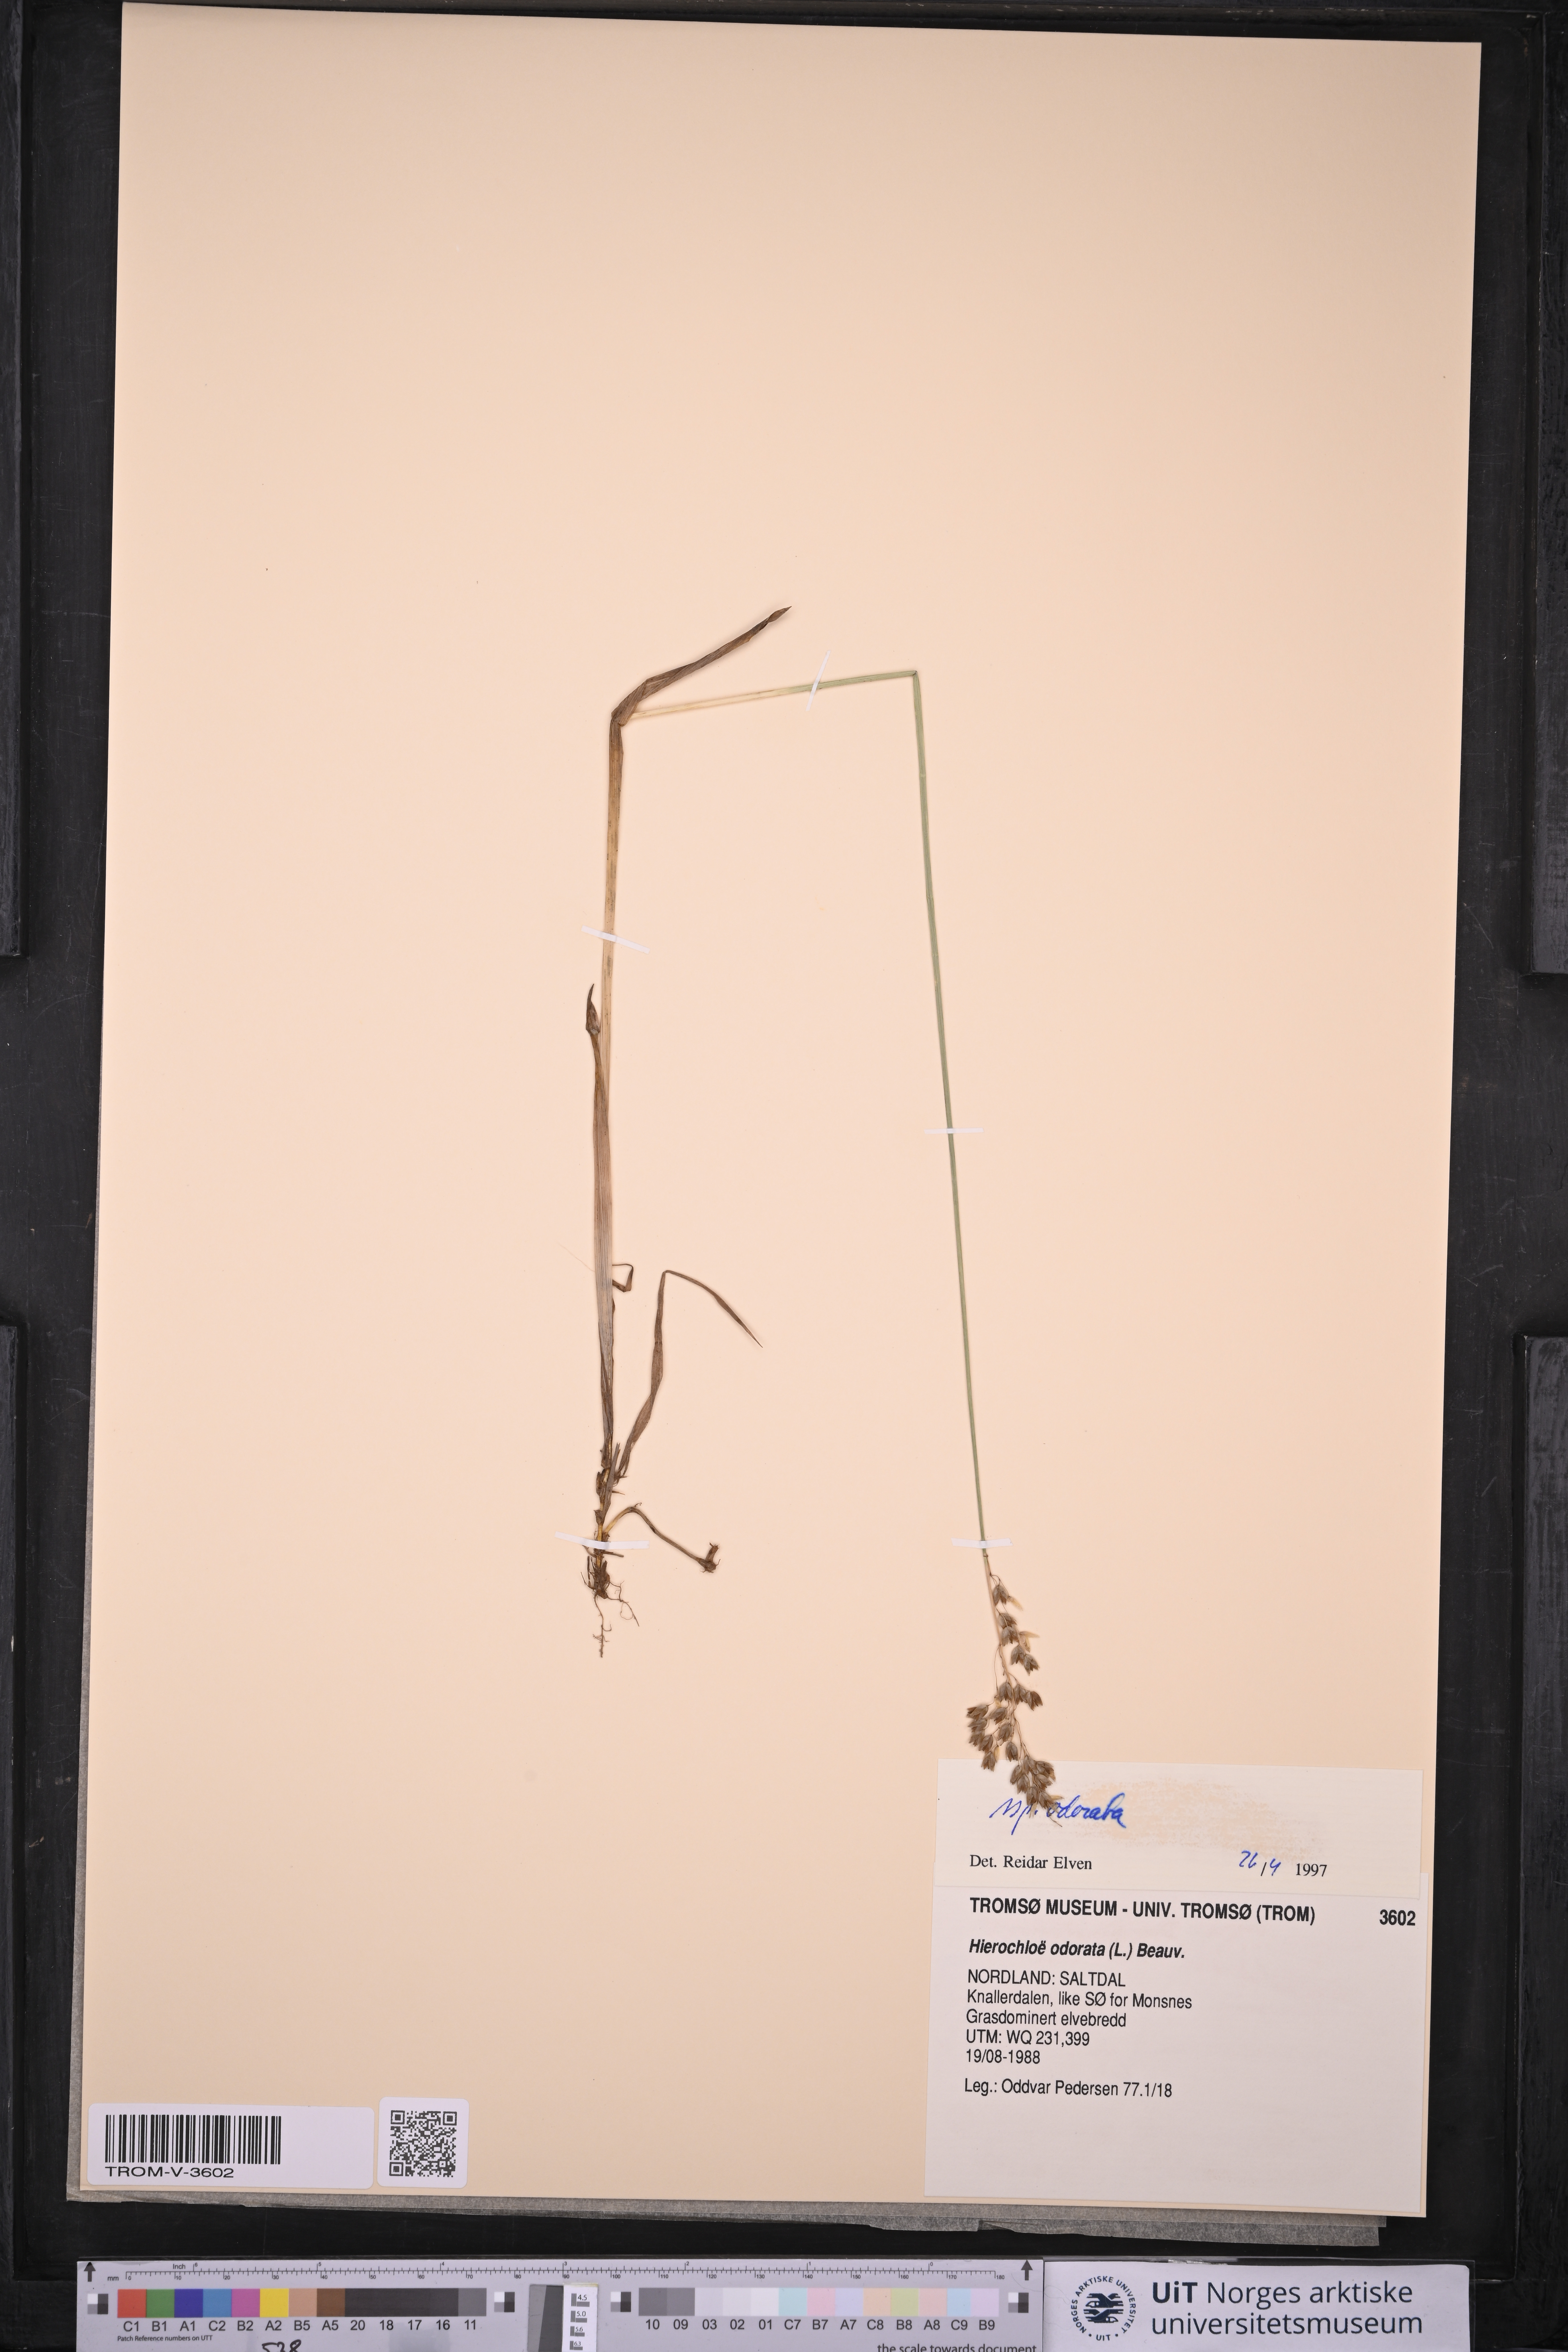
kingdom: Plantae
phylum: Tracheophyta
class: Liliopsida
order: Poales
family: Poaceae
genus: Anthoxanthum
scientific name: Anthoxanthum nitens
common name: Holy grass
